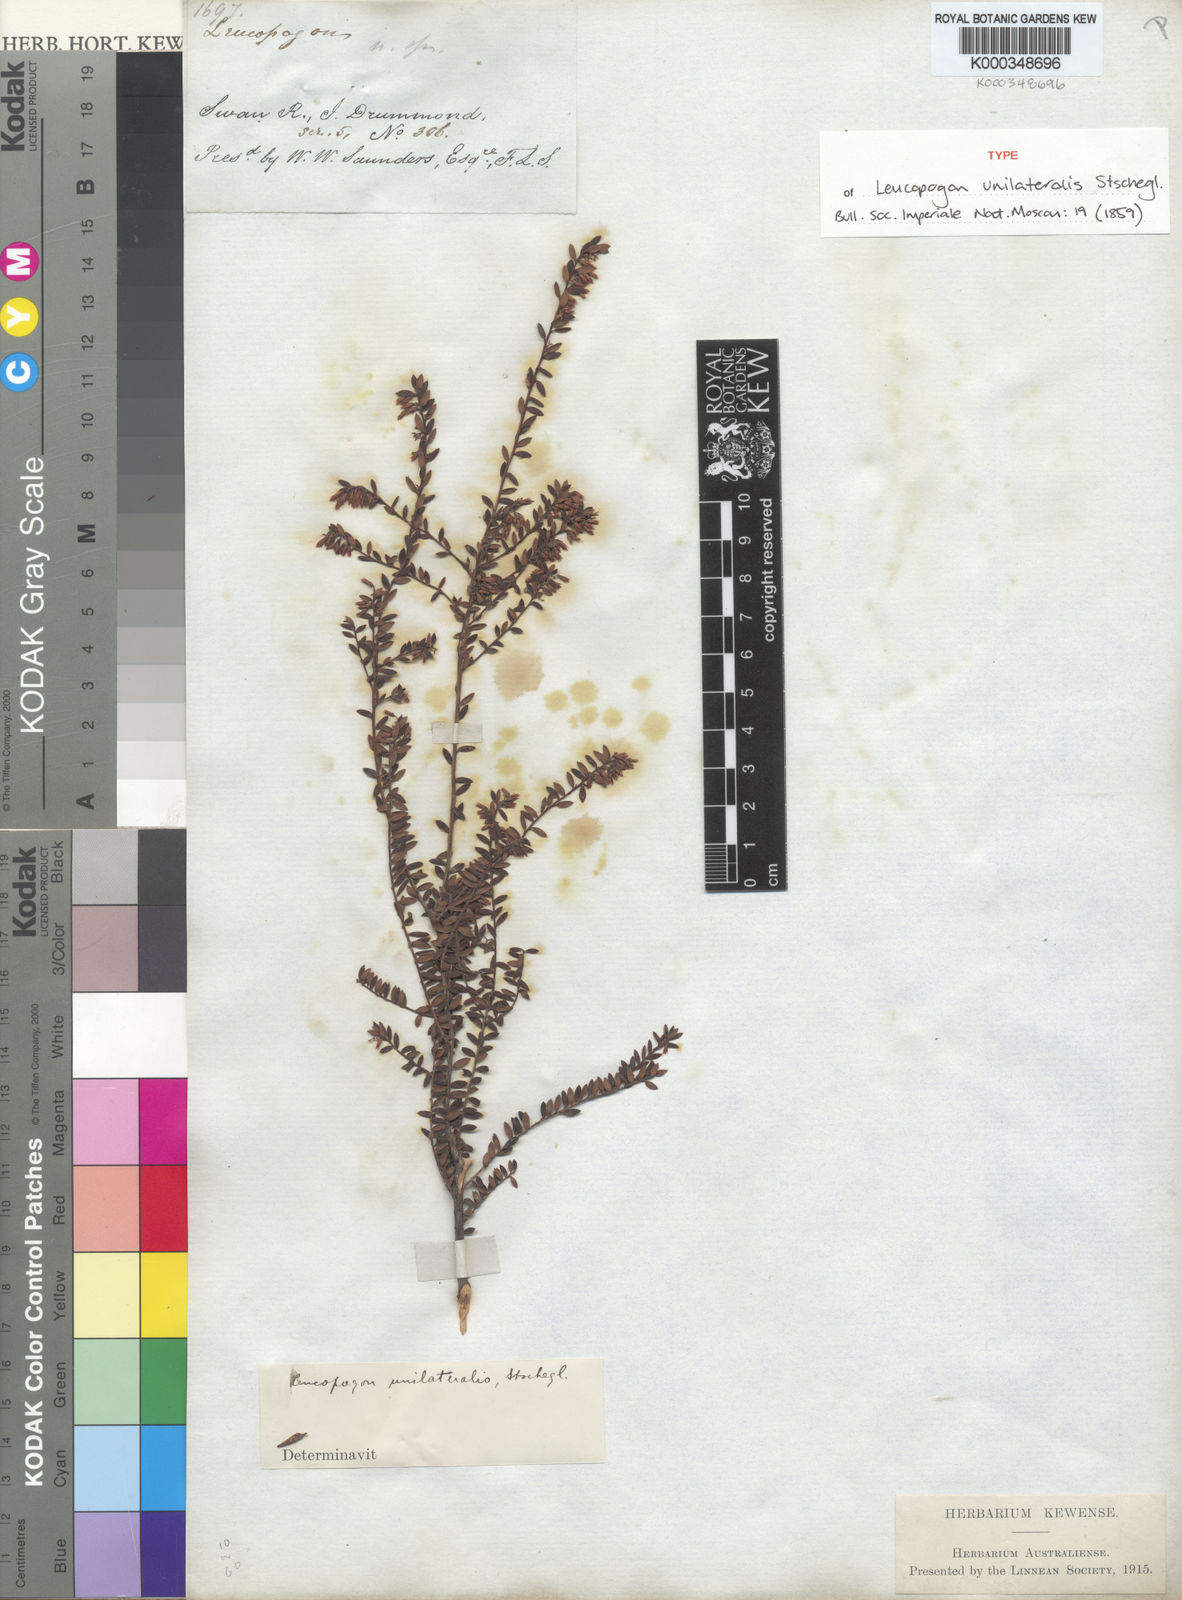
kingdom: Plantae
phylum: Tracheophyta
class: Magnoliopsida
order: Ericales
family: Ericaceae
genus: Leucopogon
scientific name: Leucopogon unilateralis
